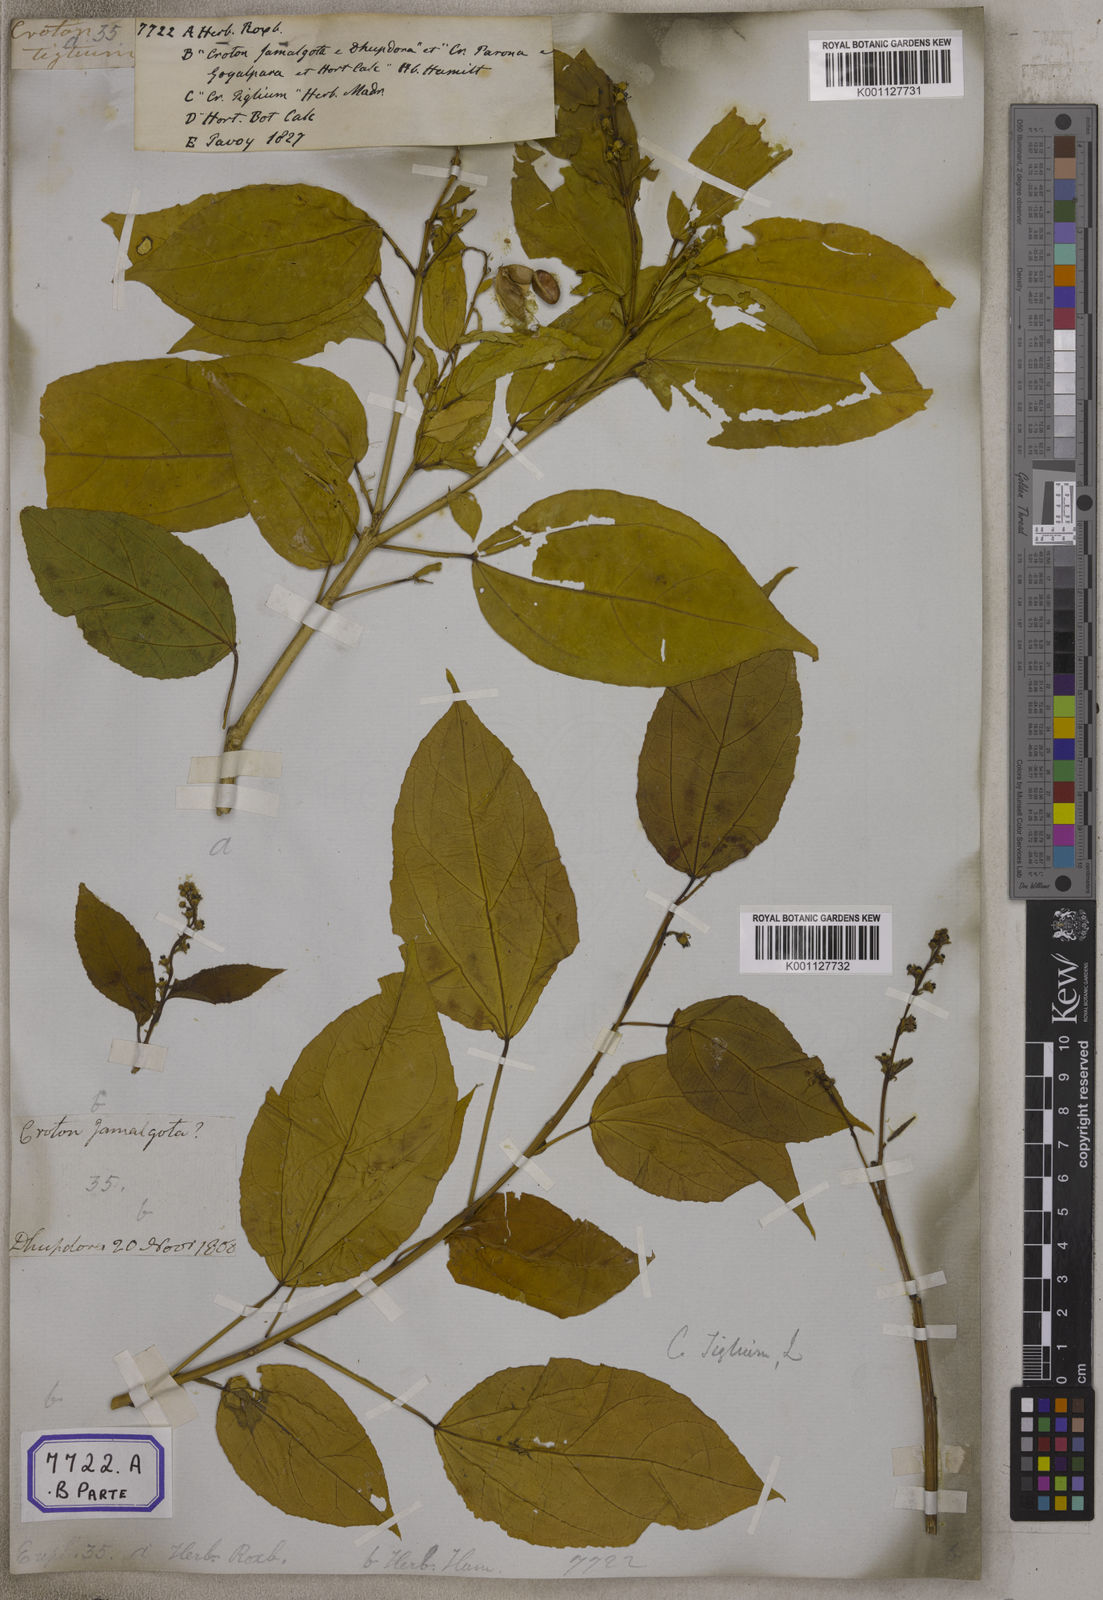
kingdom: Plantae
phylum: Tracheophyta
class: Magnoliopsida
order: Malpighiales
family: Euphorbiaceae
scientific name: Euphorbiaceae
